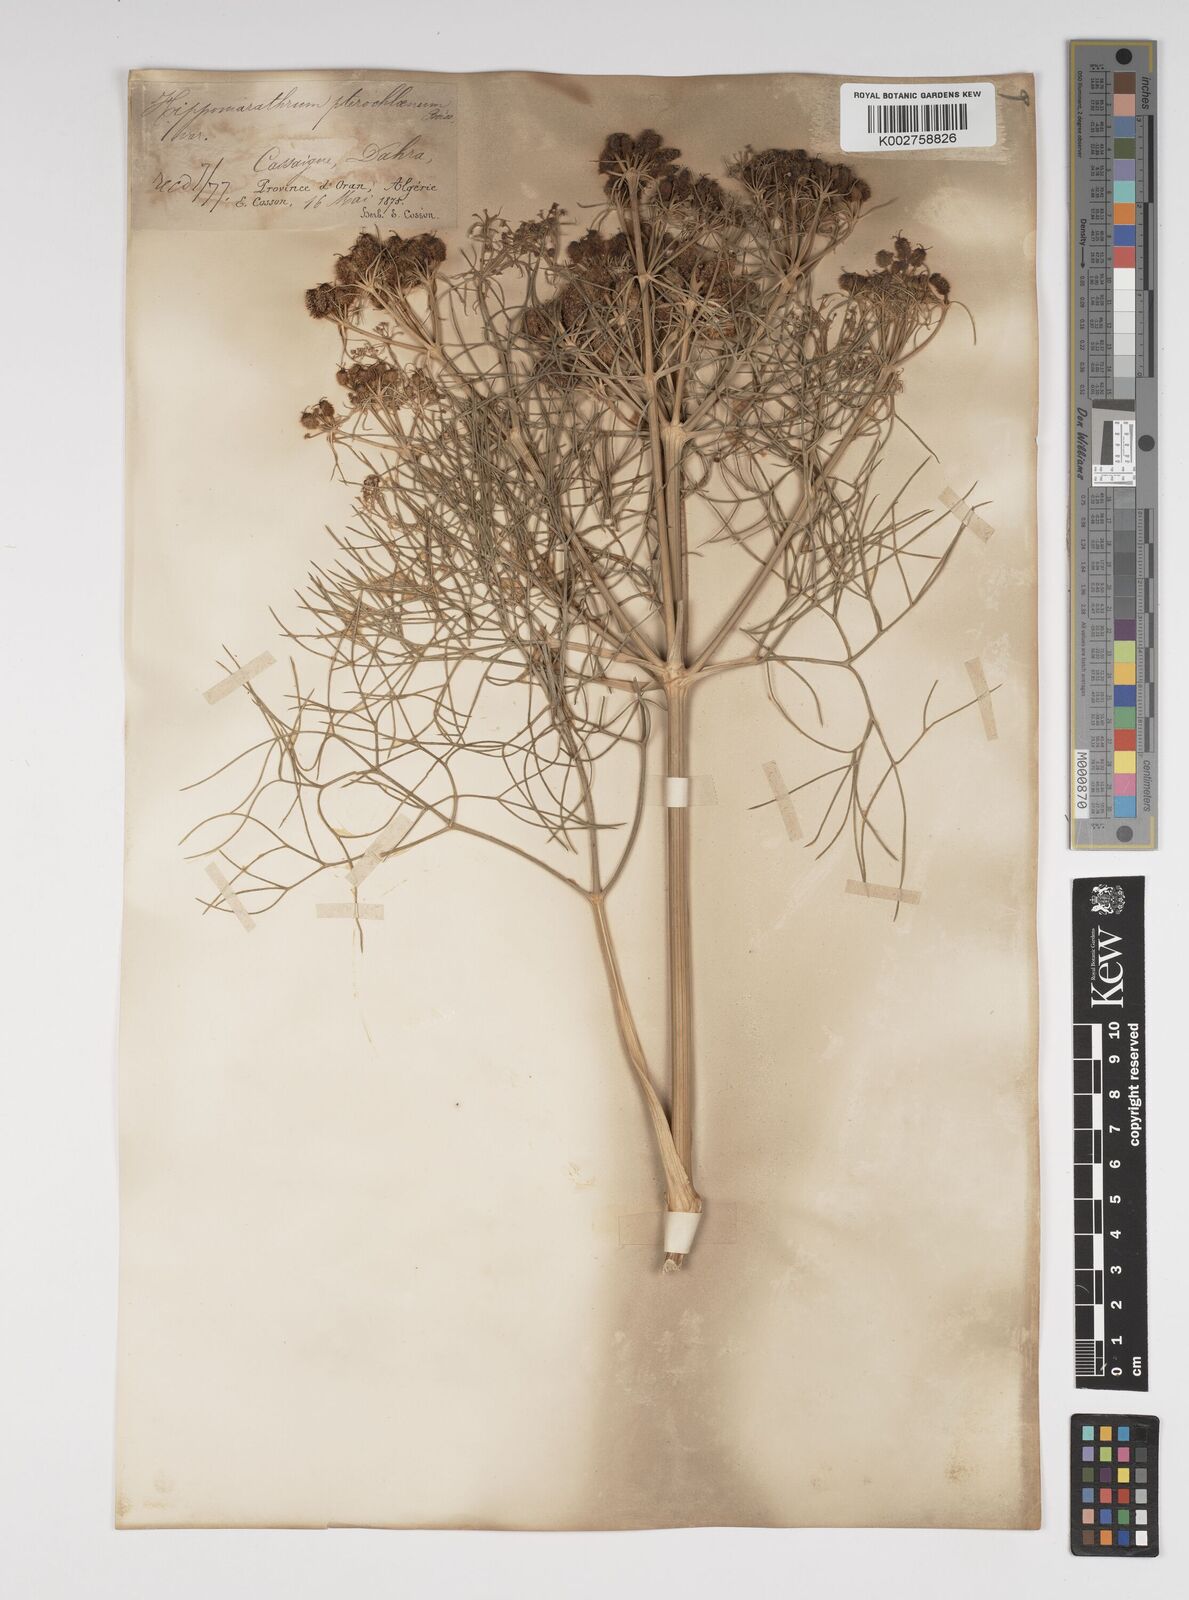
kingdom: Plantae
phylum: Tracheophyta
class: Magnoliopsida
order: Apiales
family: Apiaceae
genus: Cachrys
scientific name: Cachrys sicula
